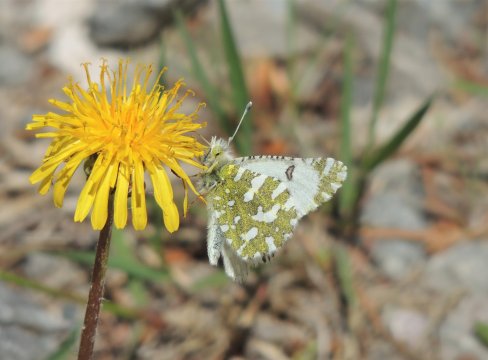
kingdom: Animalia
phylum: Arthropoda
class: Insecta
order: Lepidoptera
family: Pieridae
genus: Euchloe
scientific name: Euchloe lotta
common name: Desert Marble
